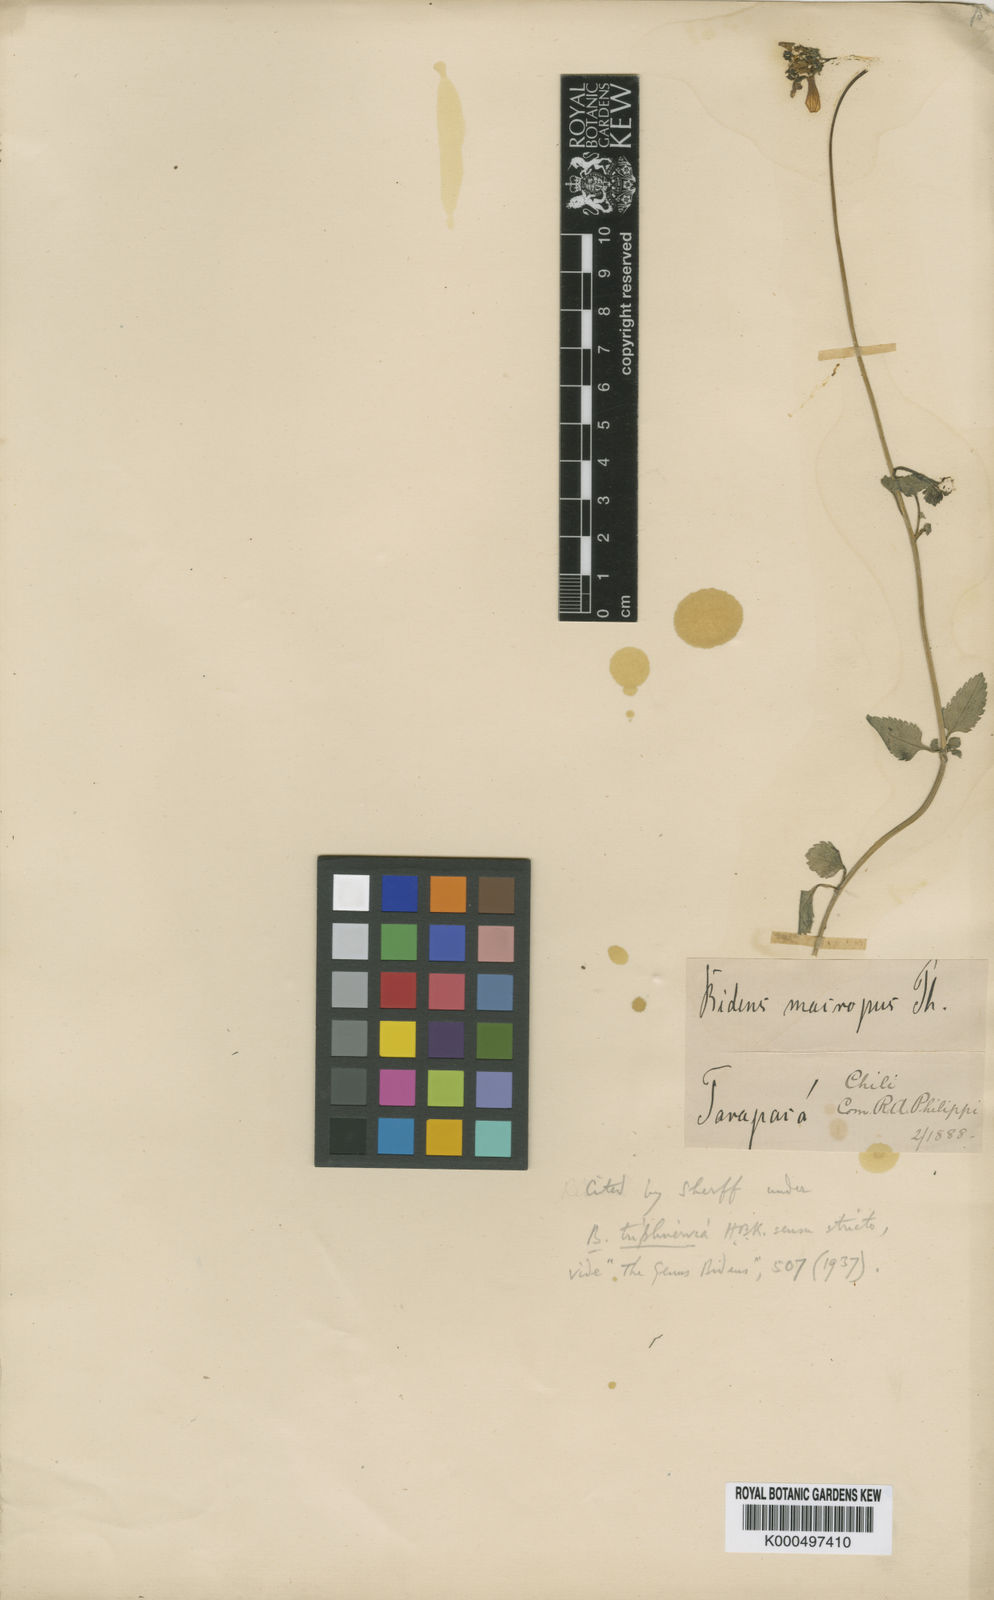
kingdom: Plantae
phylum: Tracheophyta
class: Magnoliopsida
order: Asterales
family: Asteraceae
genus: Bidens
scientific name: Bidens triplinervia
